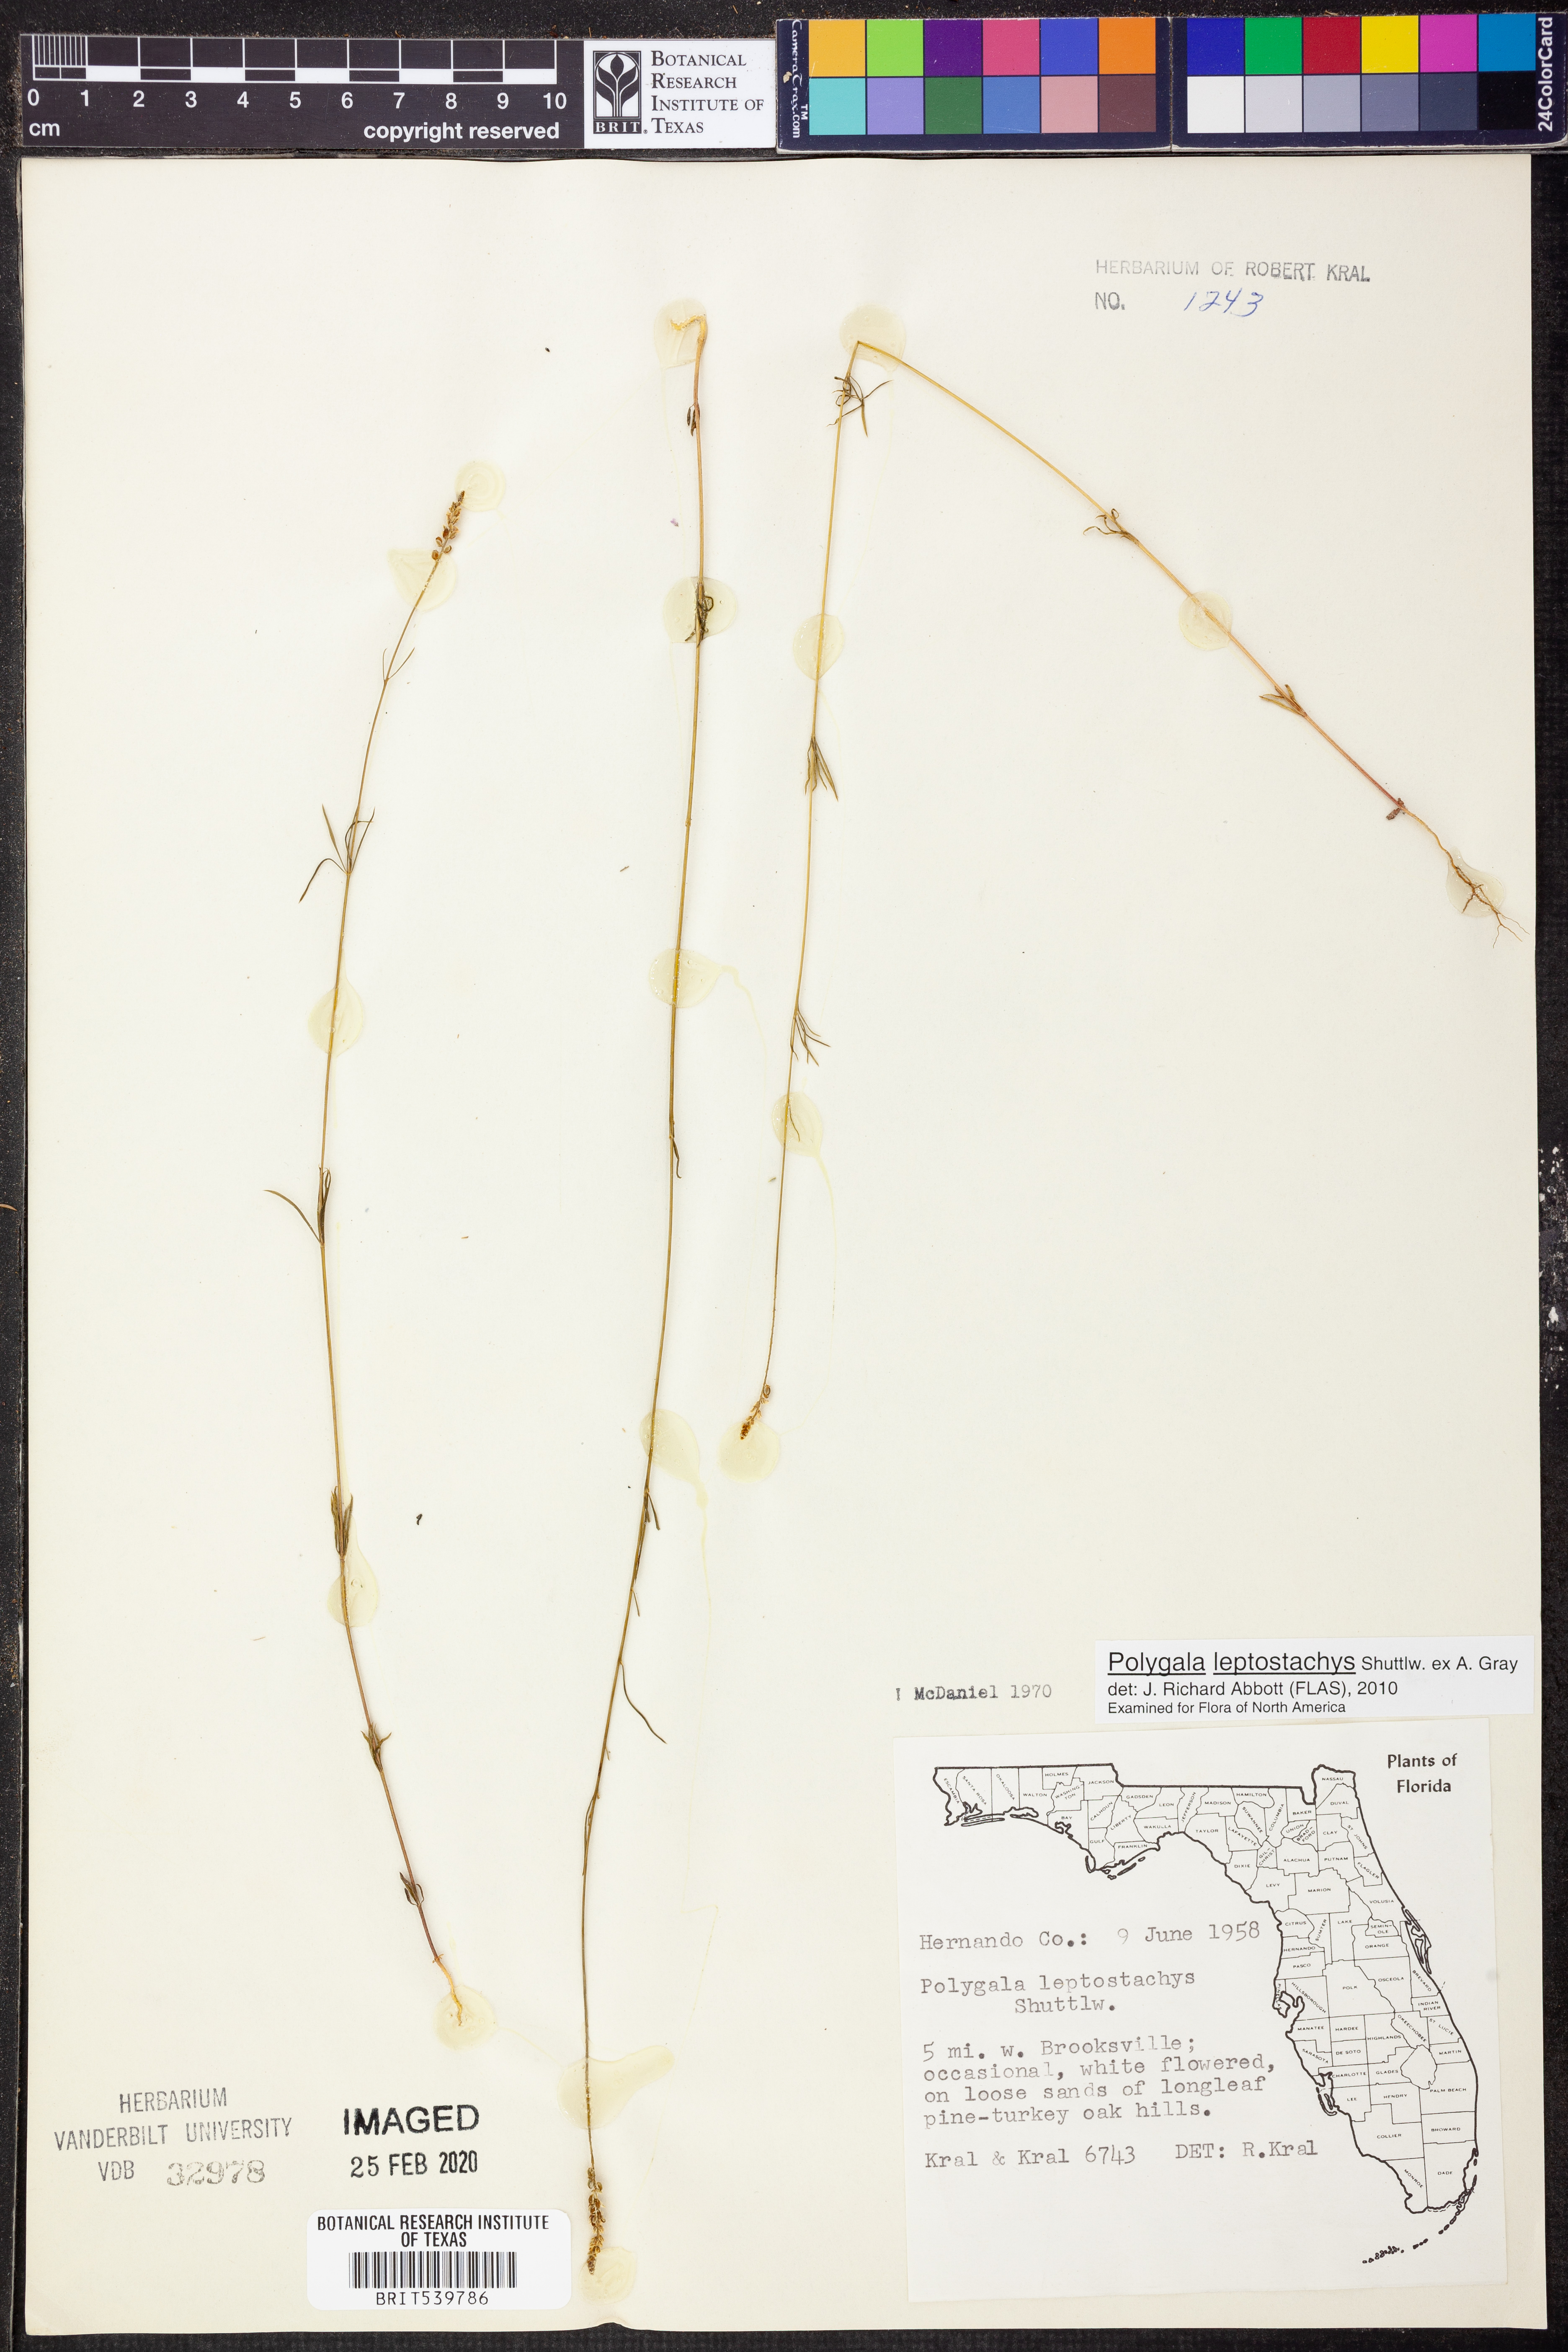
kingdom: Plantae
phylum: Tracheophyta
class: Magnoliopsida
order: Fabales
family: Polygalaceae
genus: Polygala
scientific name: Polygala leptostachys
